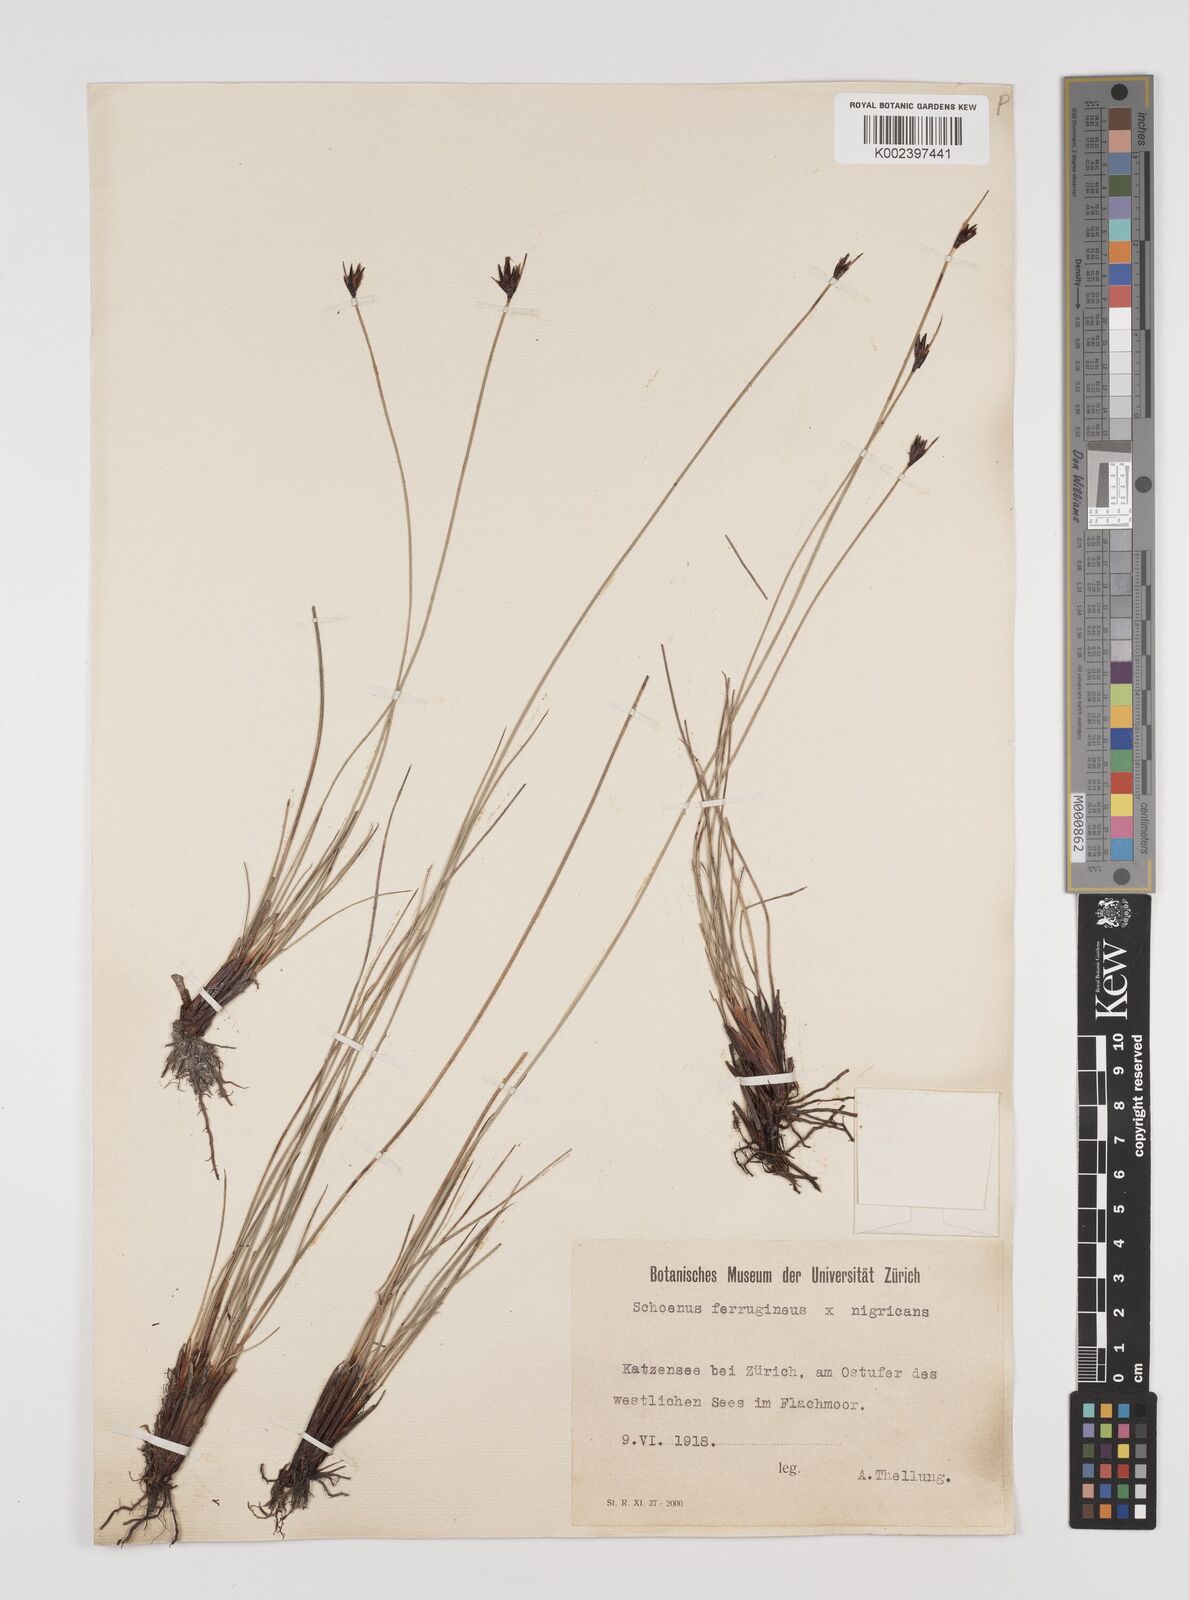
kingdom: Plantae
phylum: Tracheophyta
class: Liliopsida
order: Poales
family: Cyperaceae
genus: Schoenus
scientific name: Schoenus ferrugineus
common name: Brown bog-rush
